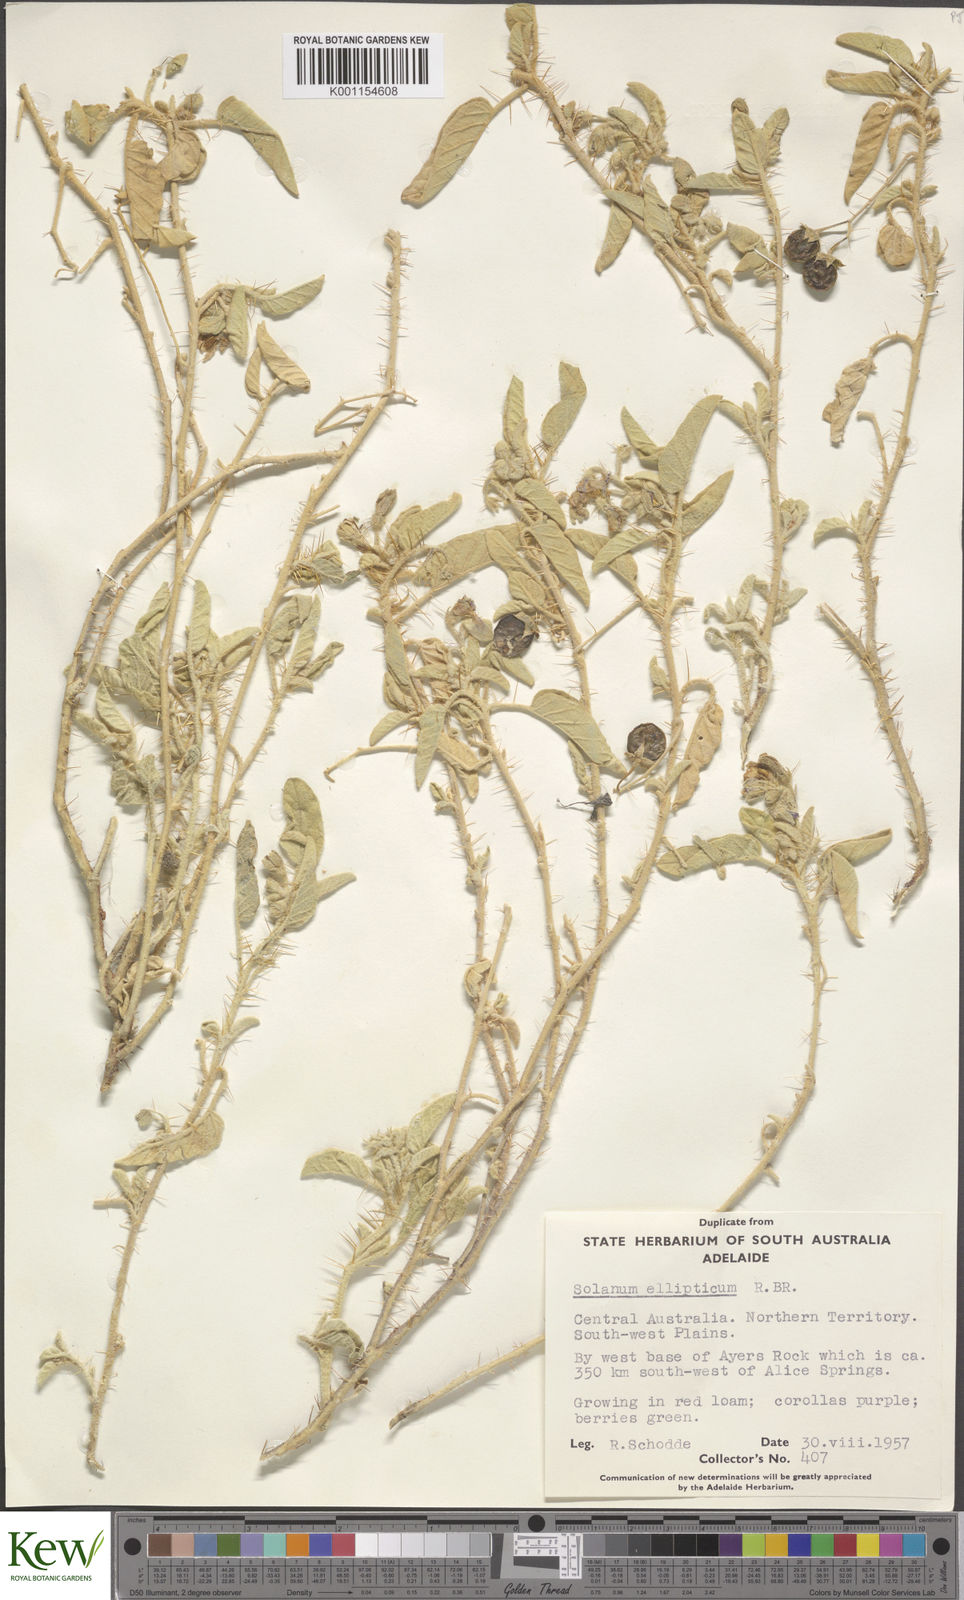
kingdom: Plantae
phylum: Tracheophyta
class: Magnoliopsida
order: Solanales
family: Solanaceae
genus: Solanum
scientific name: Solanum ellipticum
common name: Potato-bush
